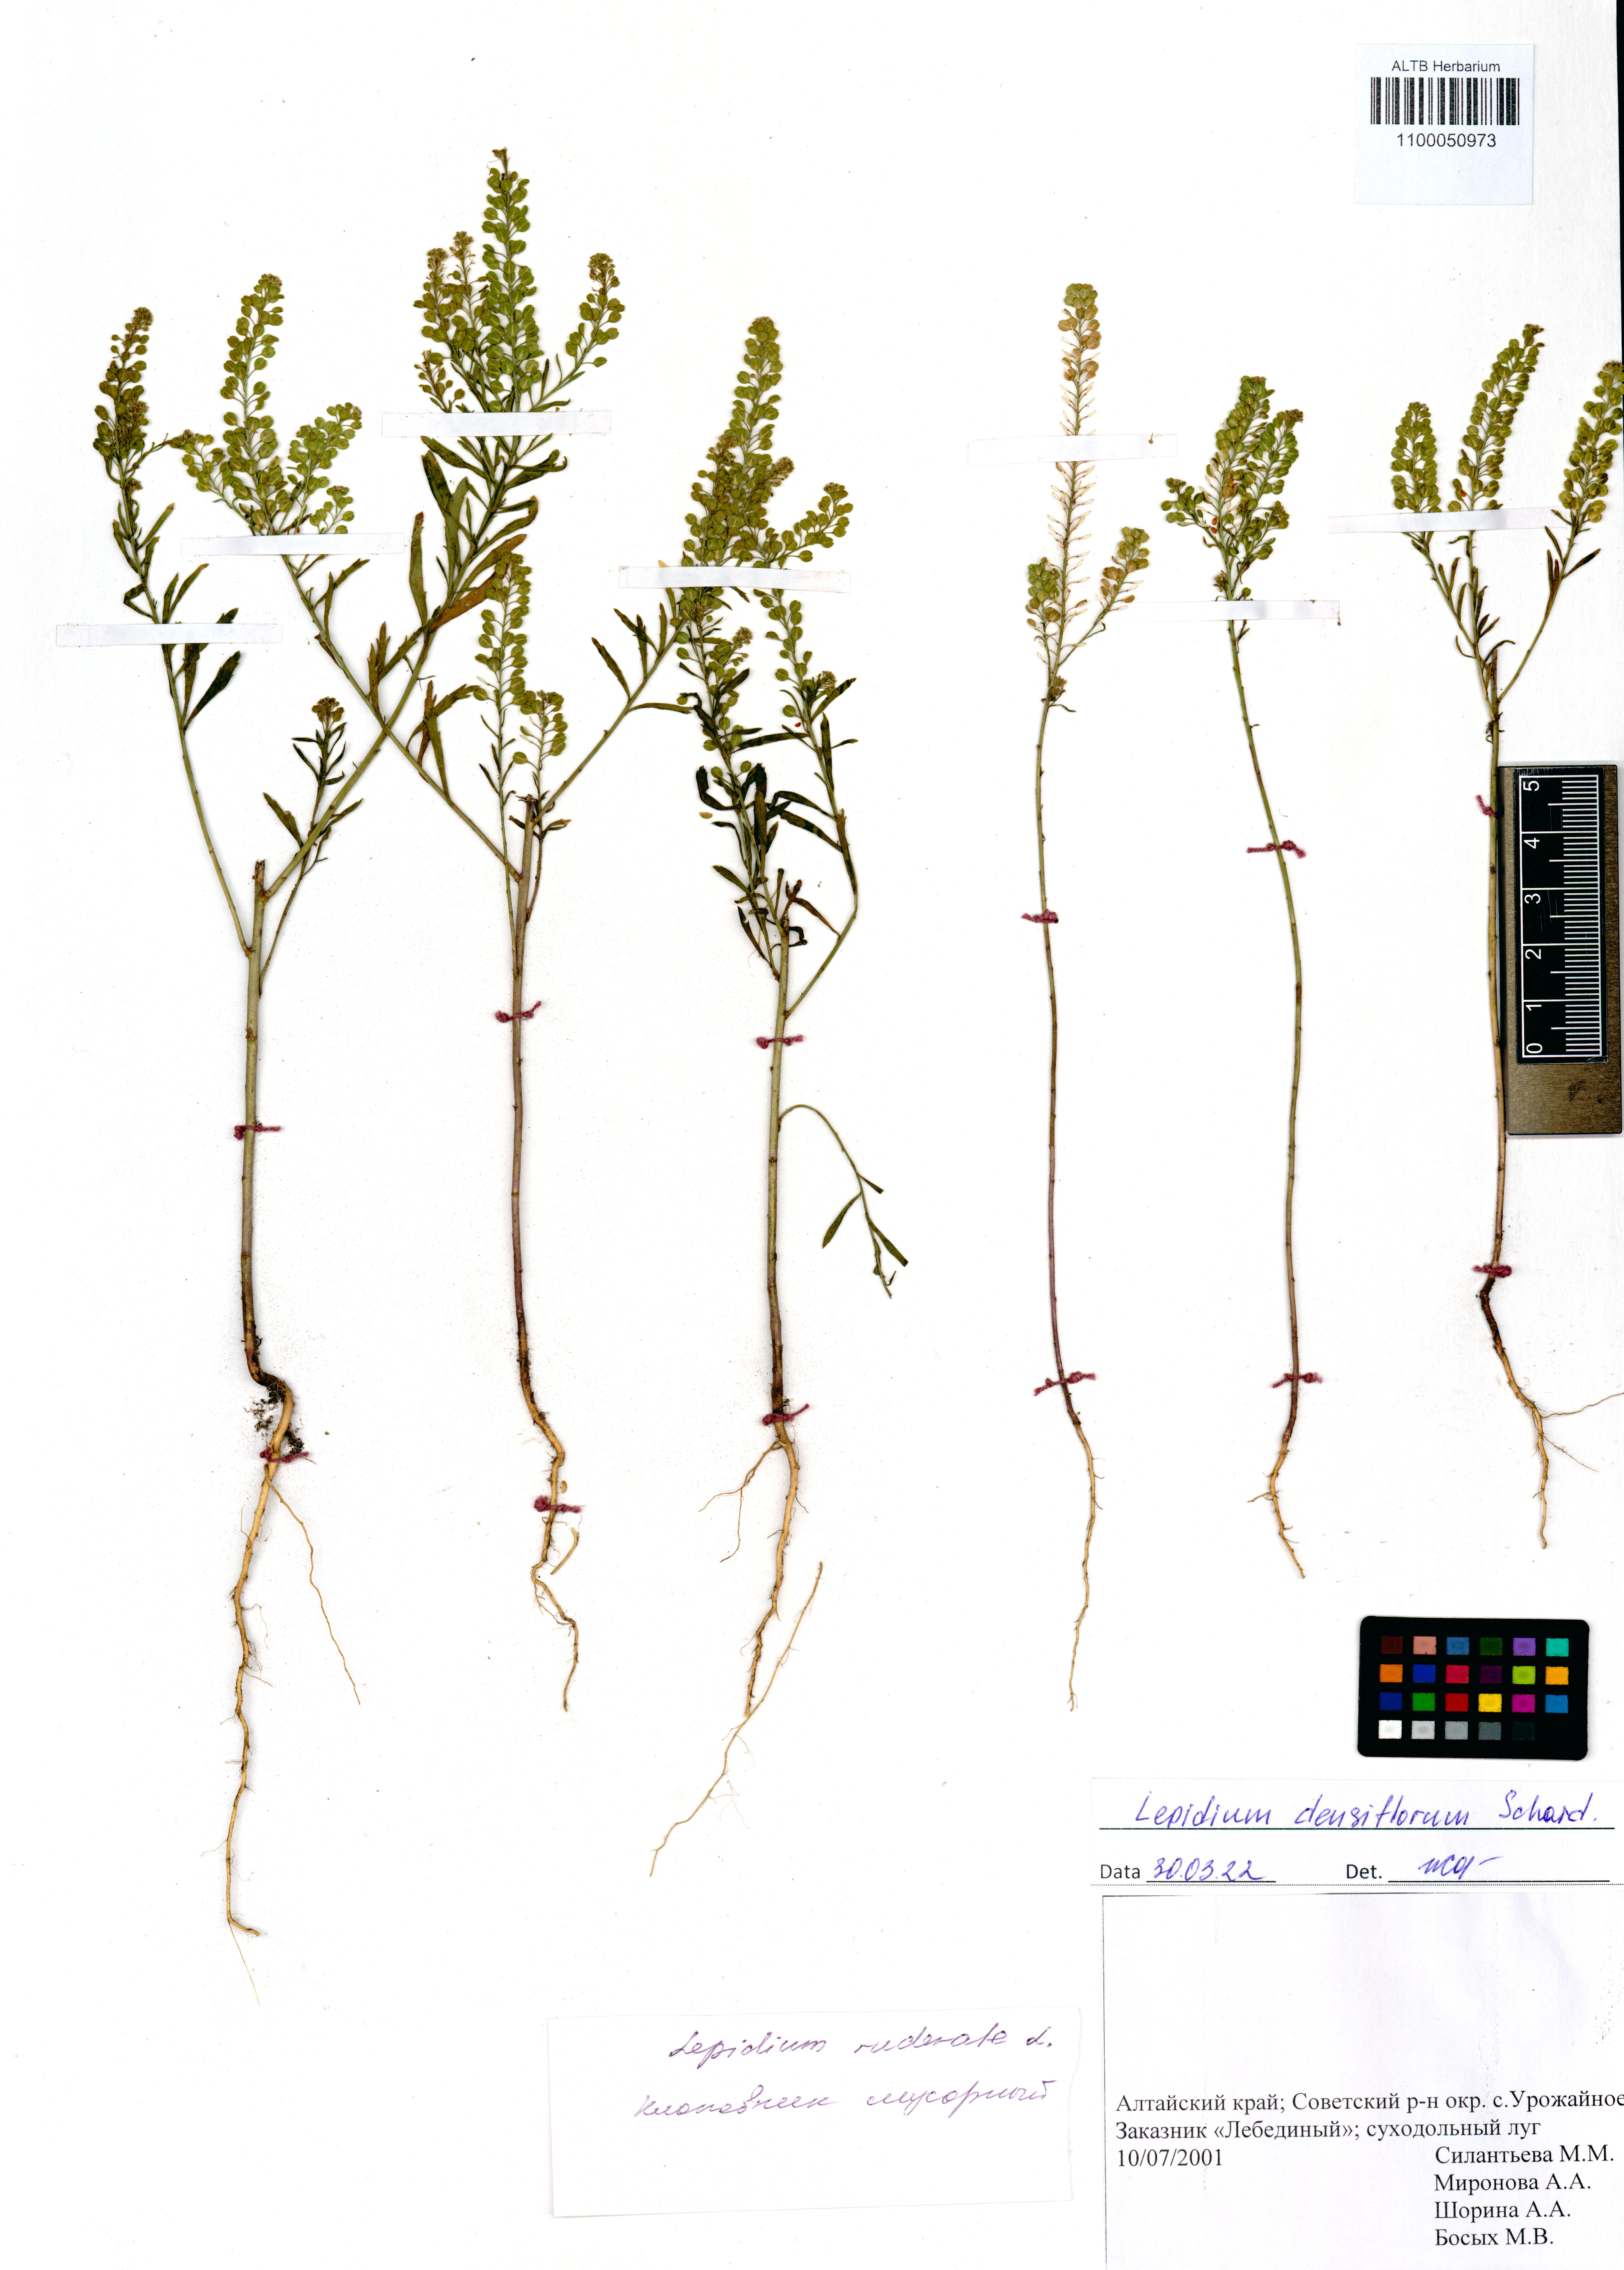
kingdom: Plantae
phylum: Tracheophyta
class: Magnoliopsida
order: Brassicales
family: Brassicaceae
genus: Lepidium
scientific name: Lepidium densiflorum
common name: Miner's pepperwort
